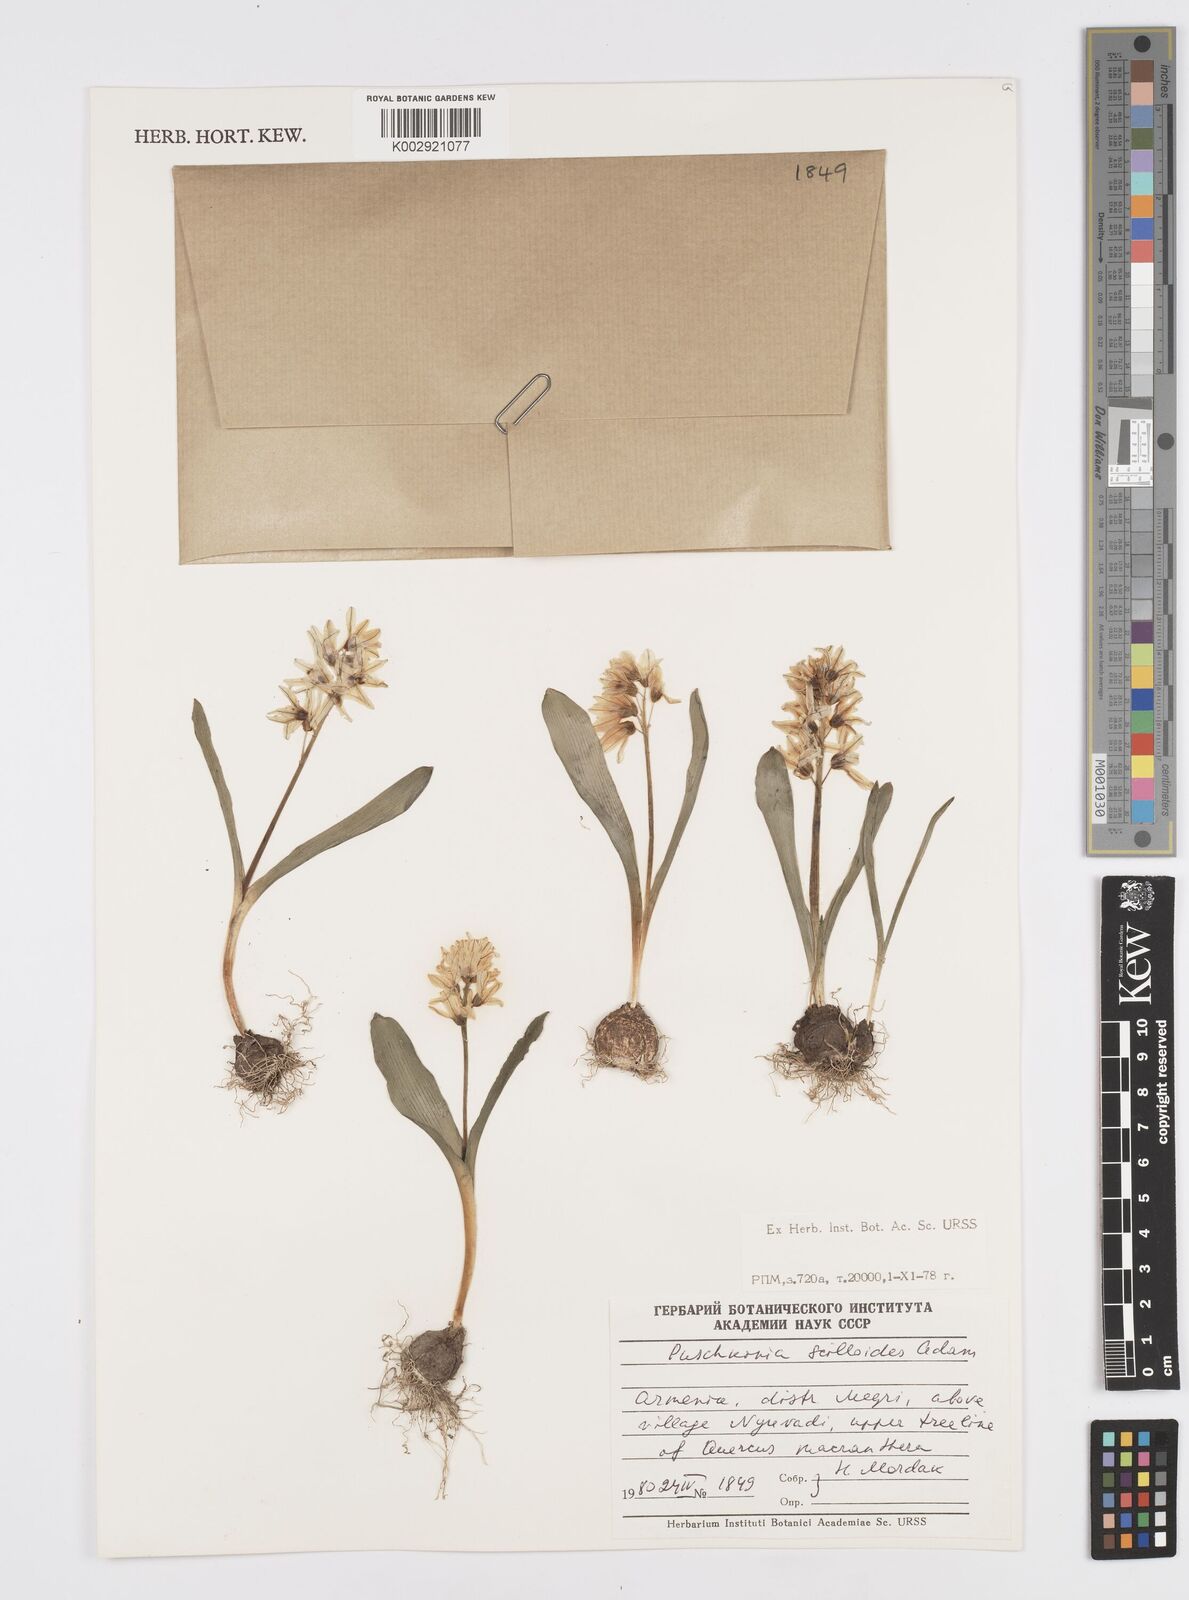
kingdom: Plantae
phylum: Tracheophyta
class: Liliopsida
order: Asparagales
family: Asparagaceae
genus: Puschkinia
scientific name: Puschkinia scilloides
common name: Striped squill
